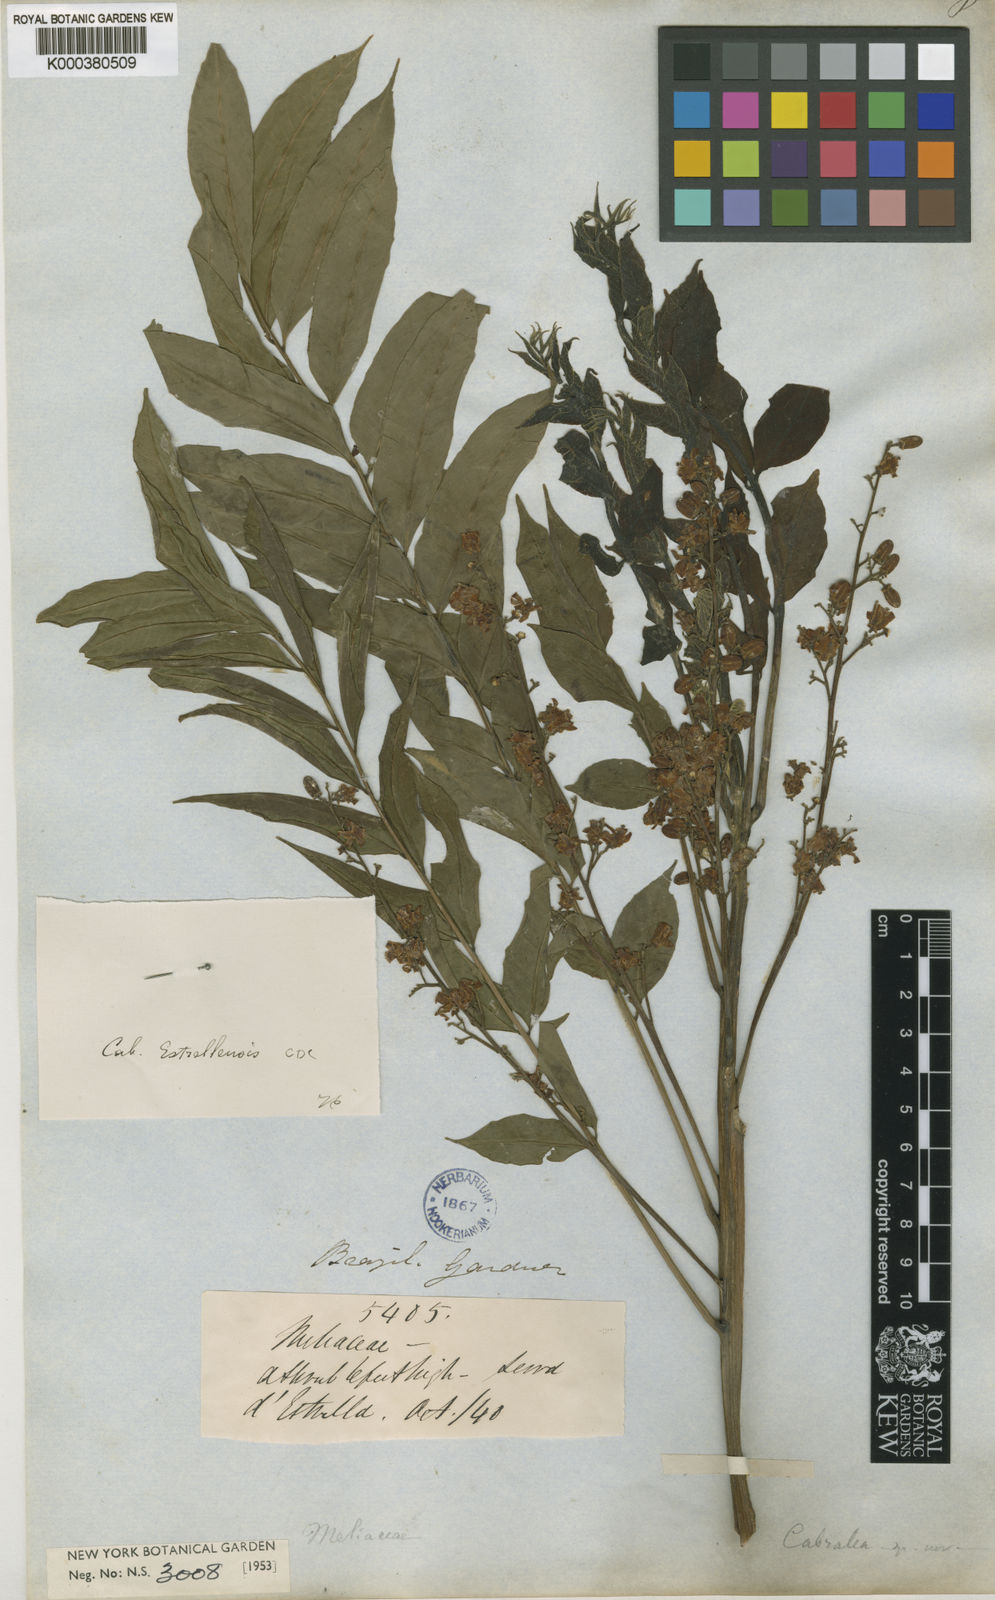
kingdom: Plantae
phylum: Tracheophyta
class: Magnoliopsida
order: Sapindales
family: Meliaceae
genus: Cabralea
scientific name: Cabralea canjerana
